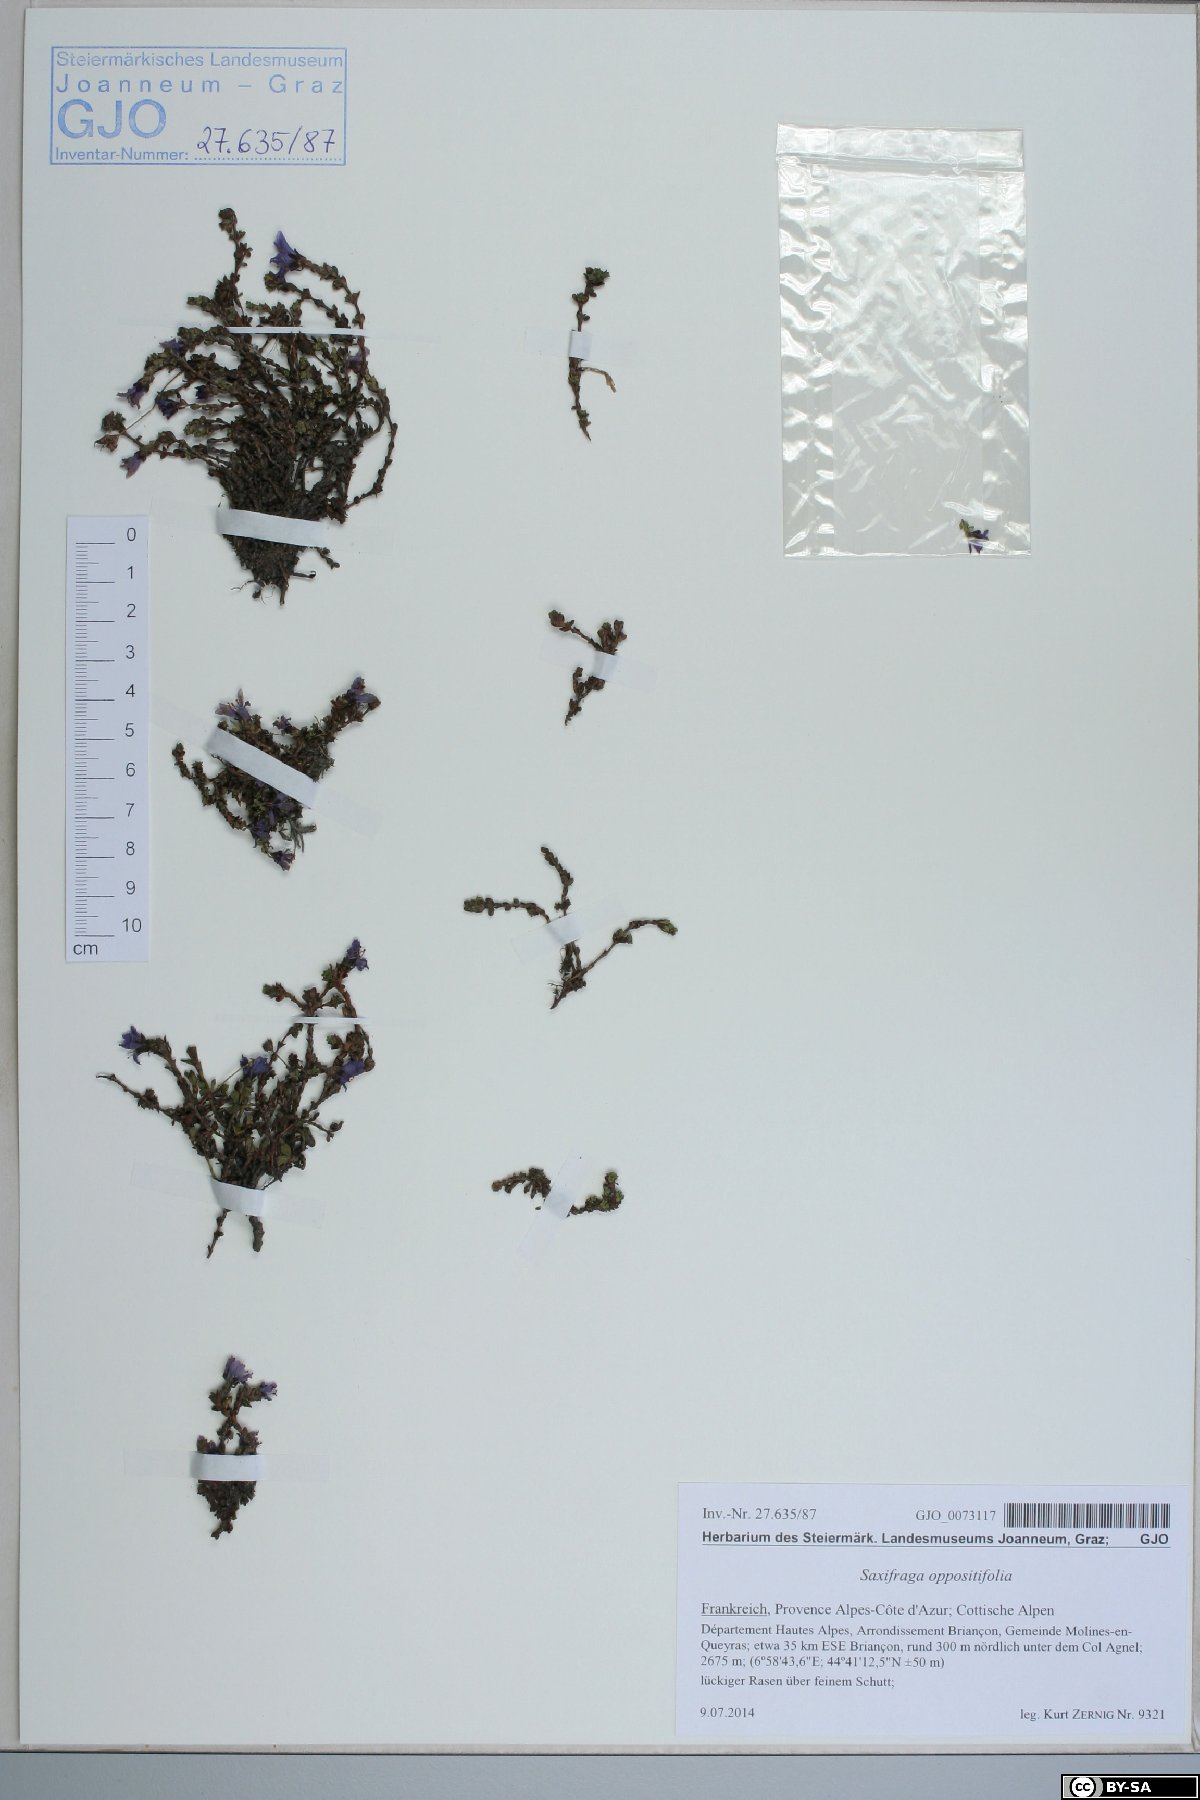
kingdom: Plantae
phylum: Tracheophyta
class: Magnoliopsida
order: Saxifragales
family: Saxifragaceae
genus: Saxifraga
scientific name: Saxifraga oppositifolia
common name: Purple saxifrage
